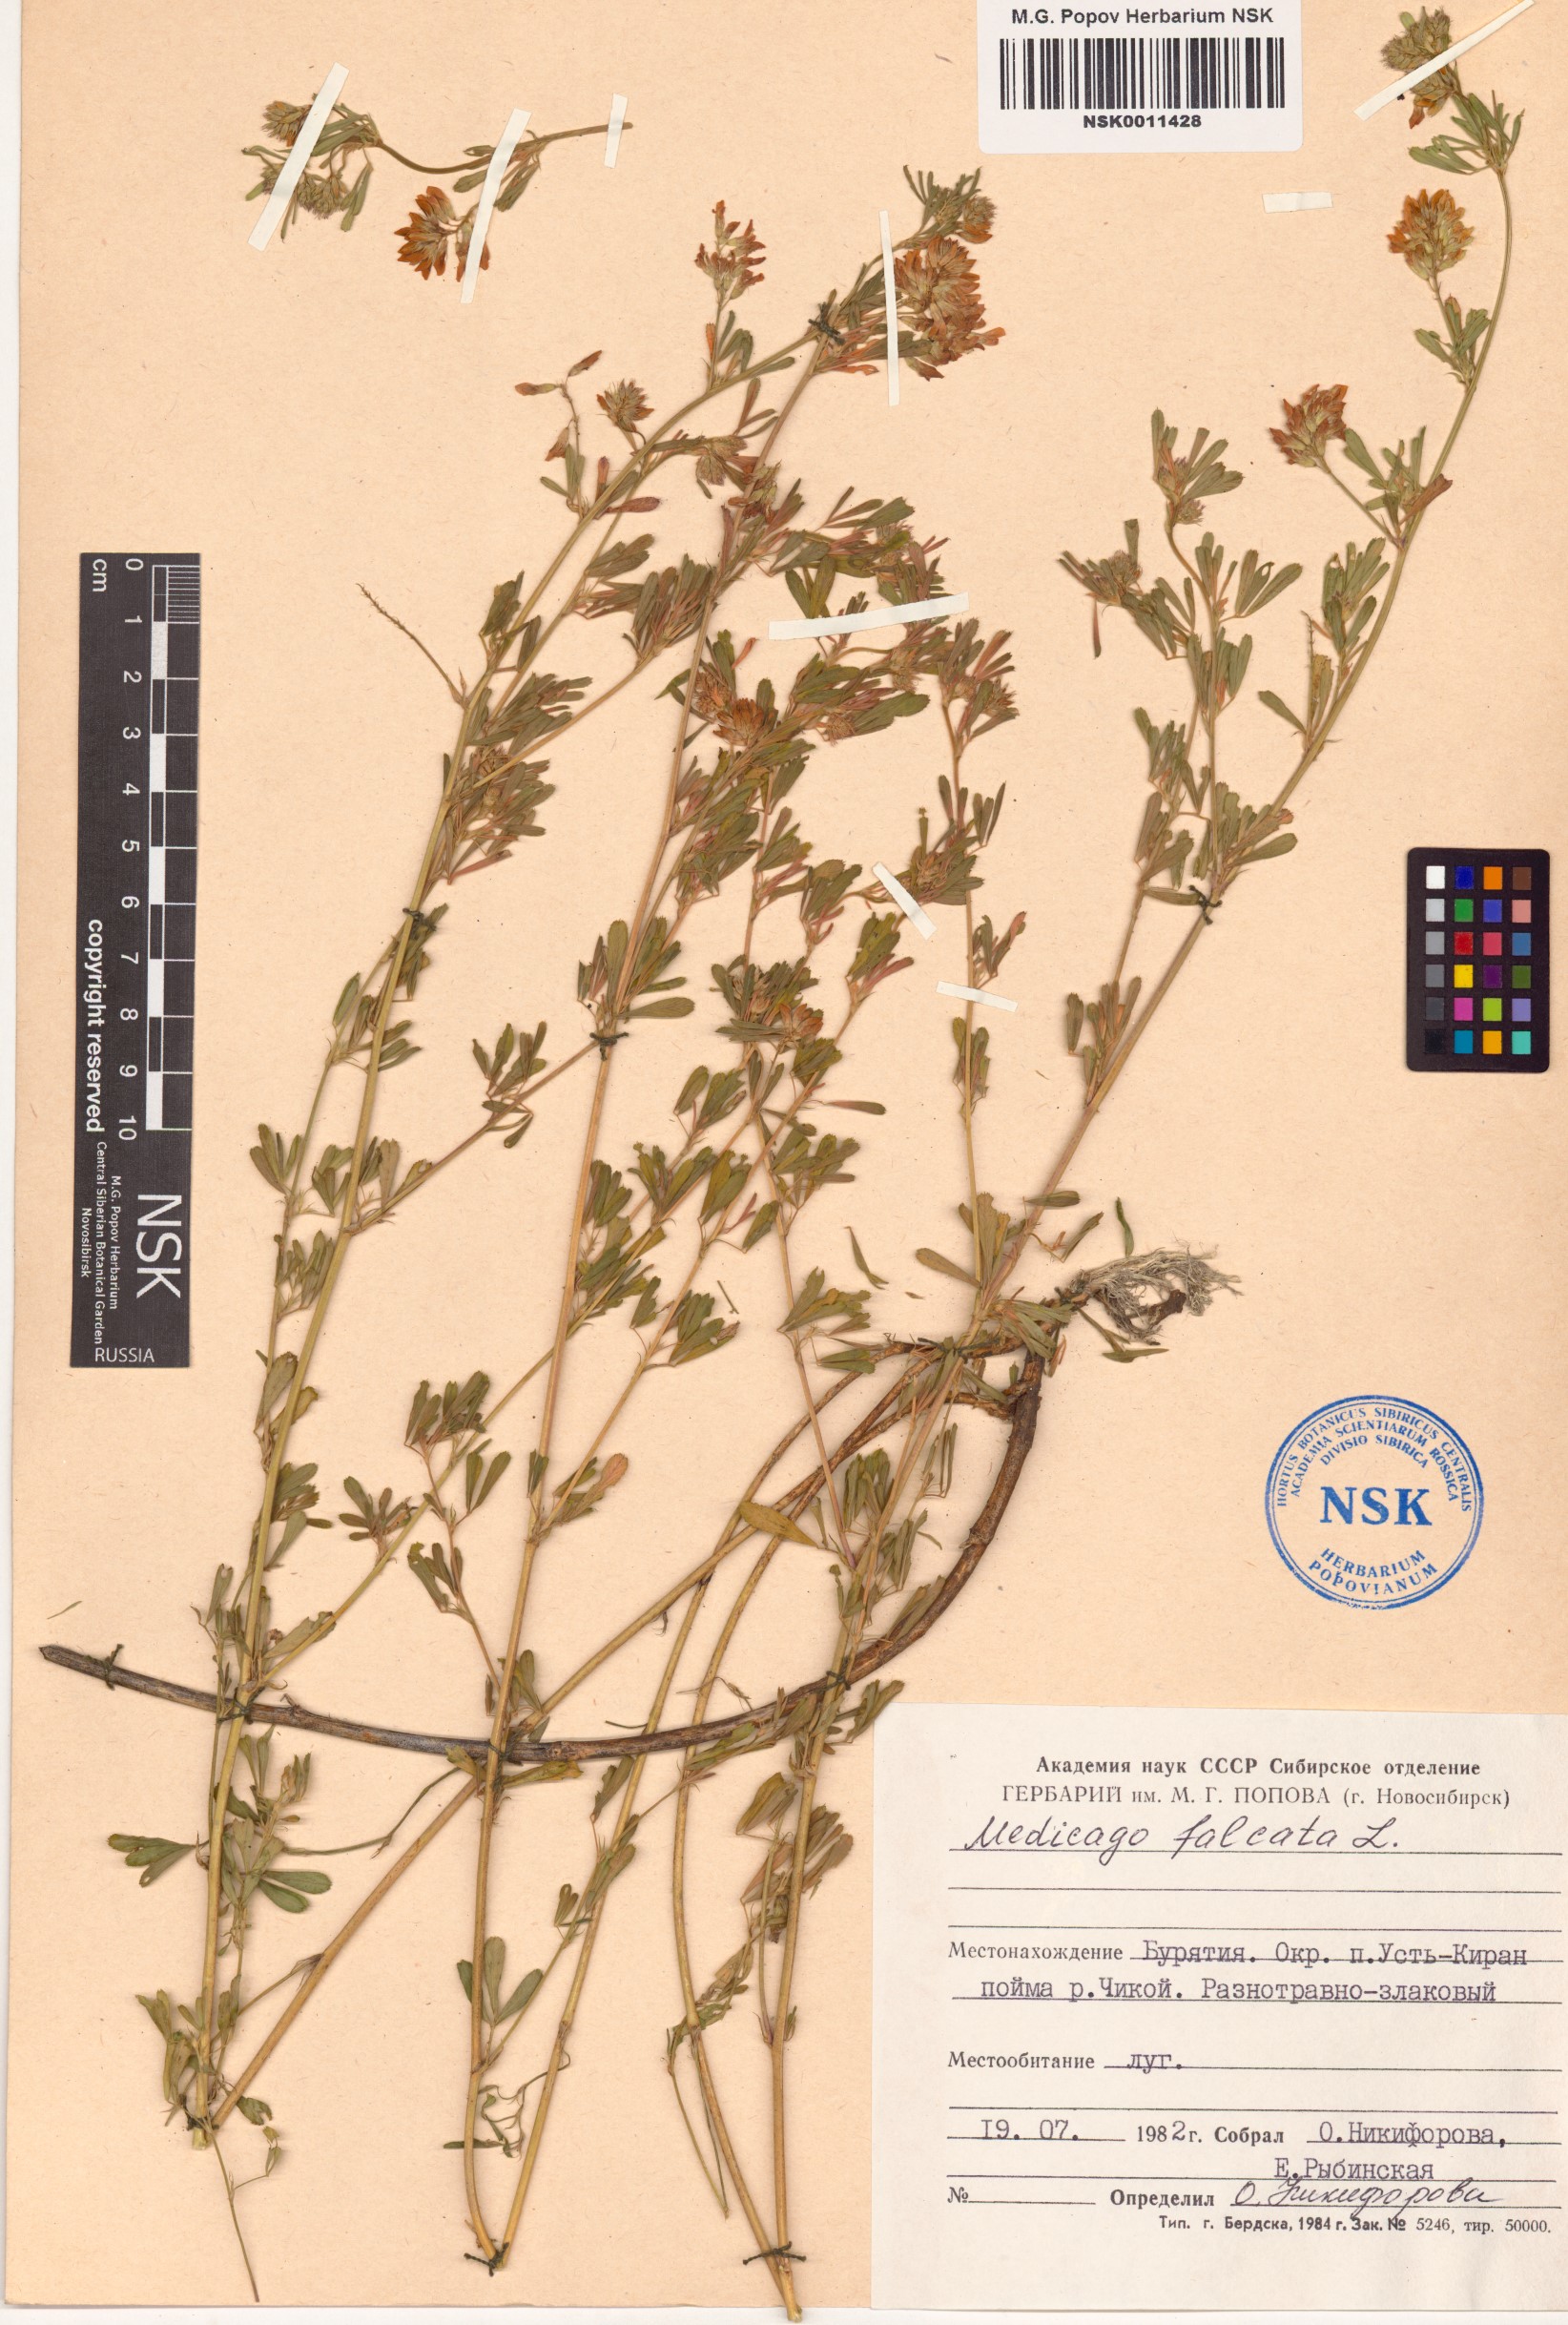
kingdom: Plantae
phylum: Tracheophyta
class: Magnoliopsida
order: Fabales
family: Fabaceae
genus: Medicago
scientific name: Medicago falcata
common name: Sickle medick
